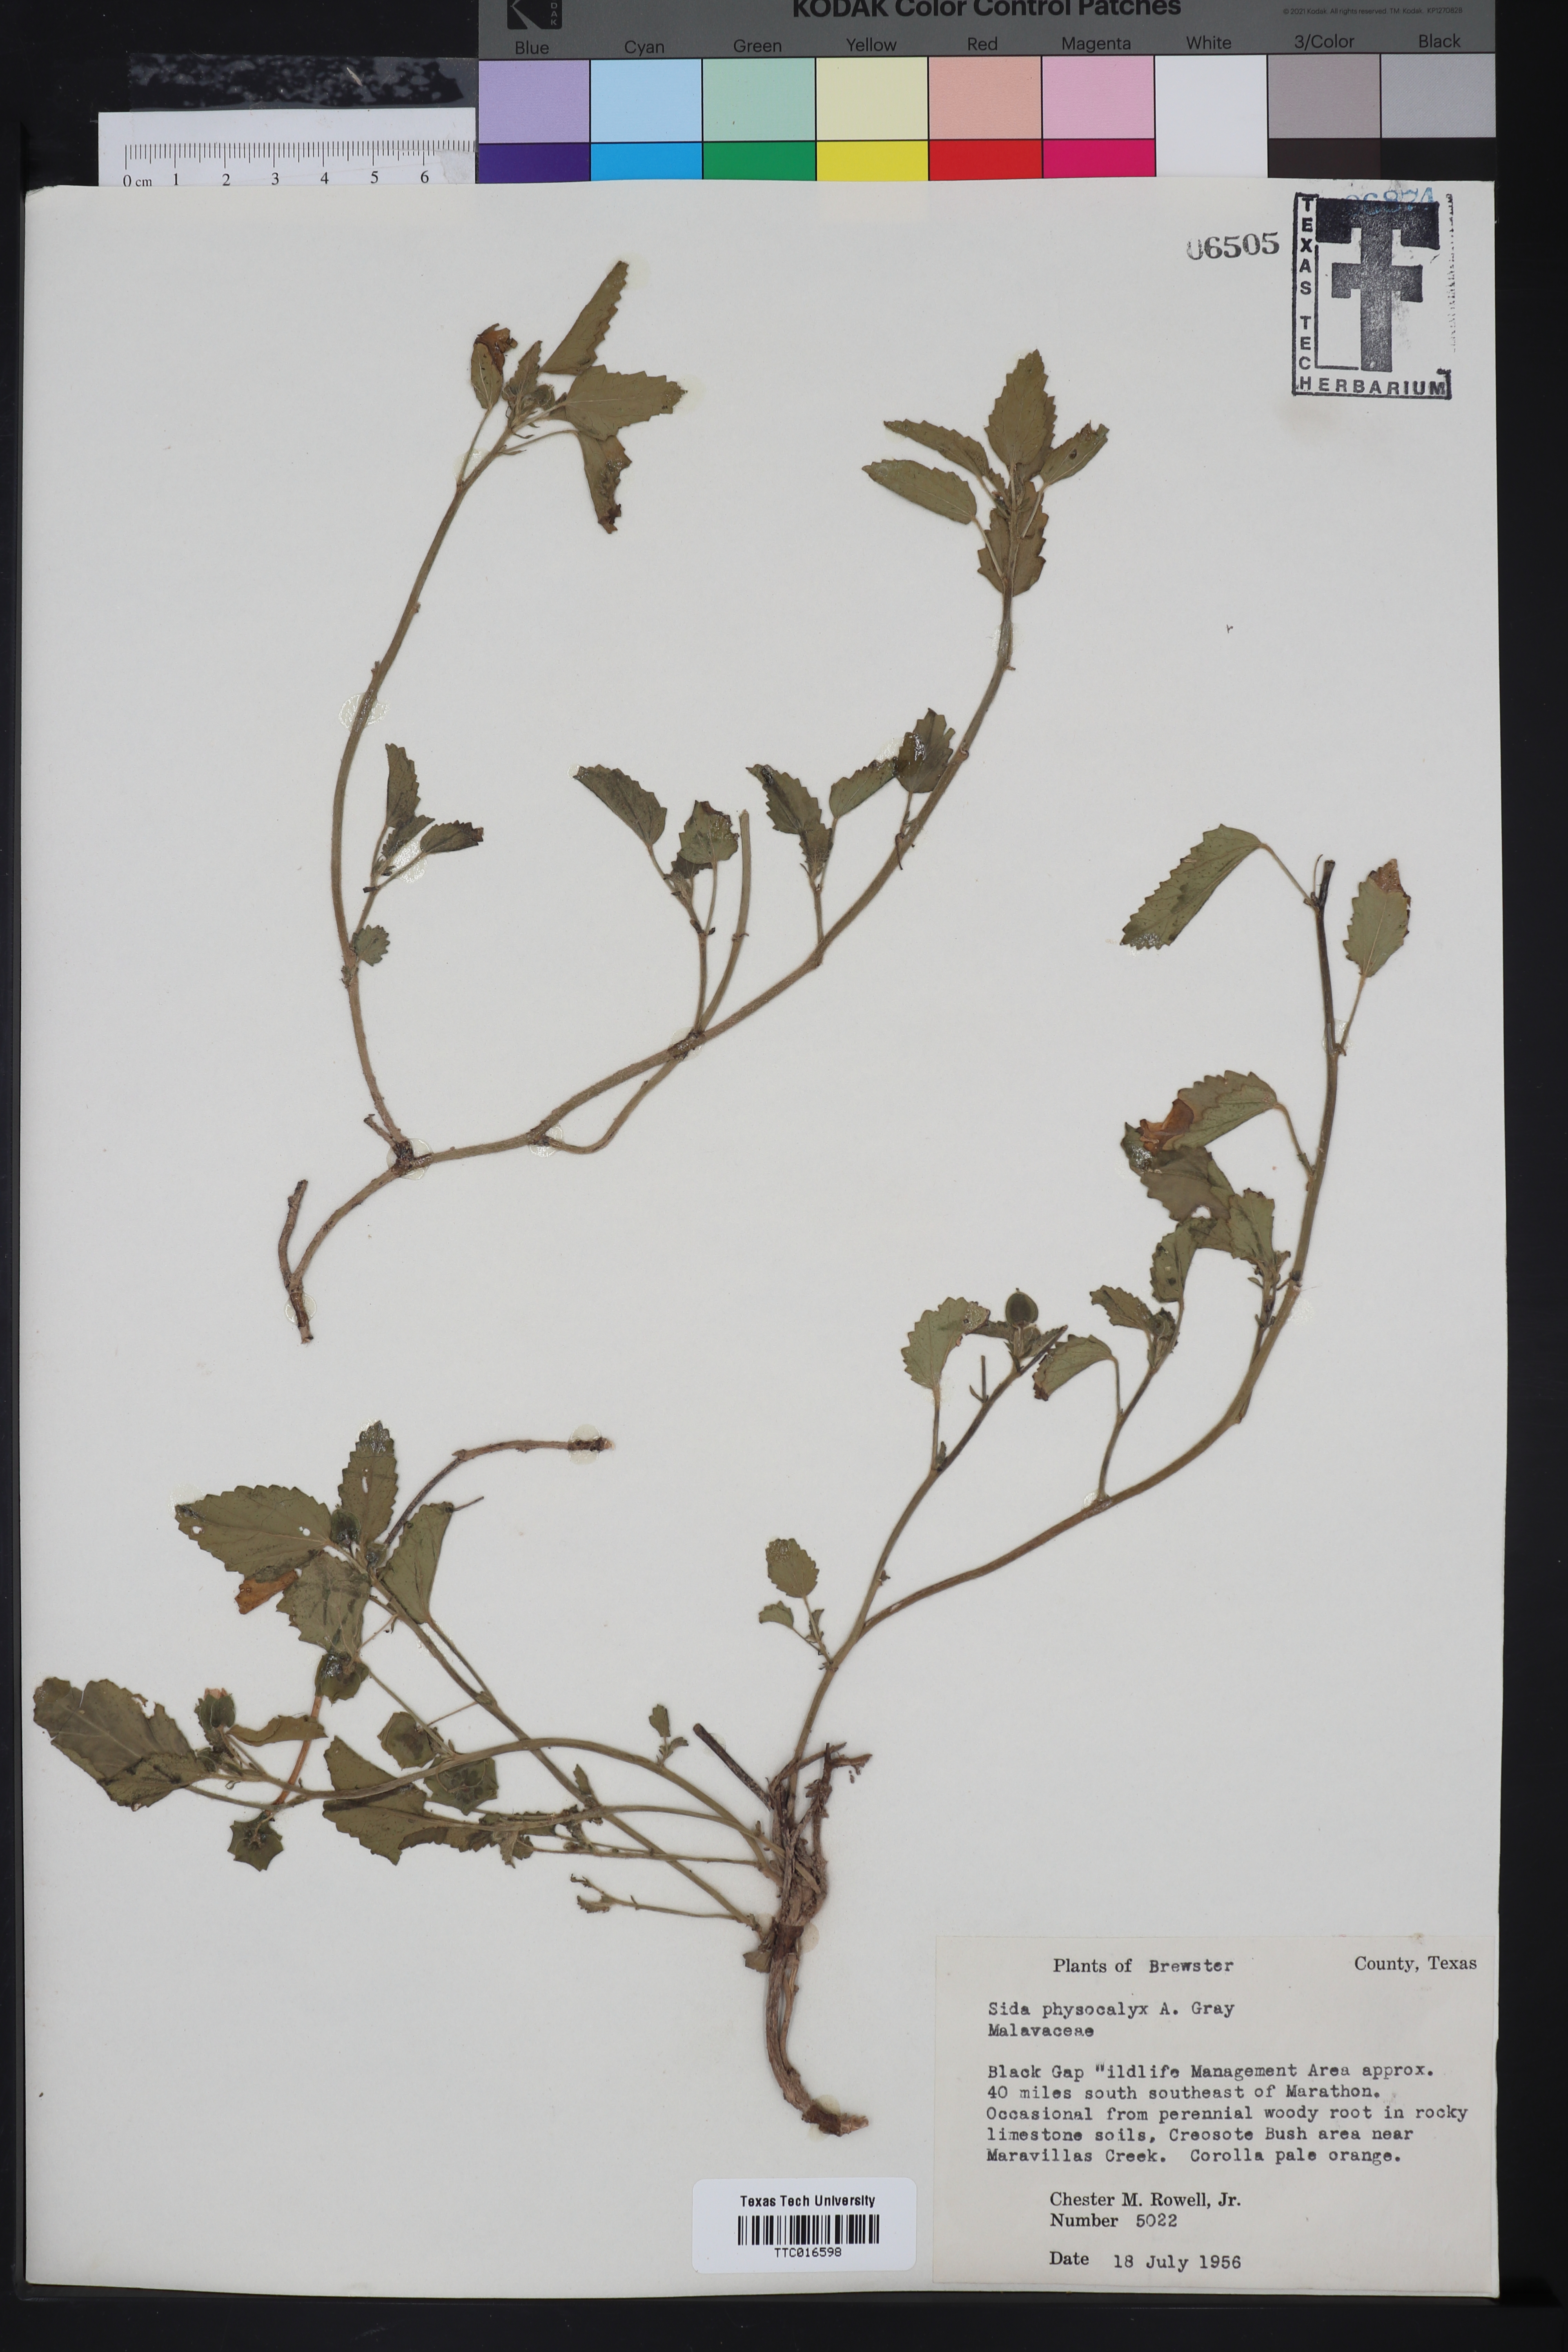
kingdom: Plantae
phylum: Tracheophyta
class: Magnoliopsida
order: Malvales
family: Malvaceae
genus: Rhynchosida
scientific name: Rhynchosida physocalyx
